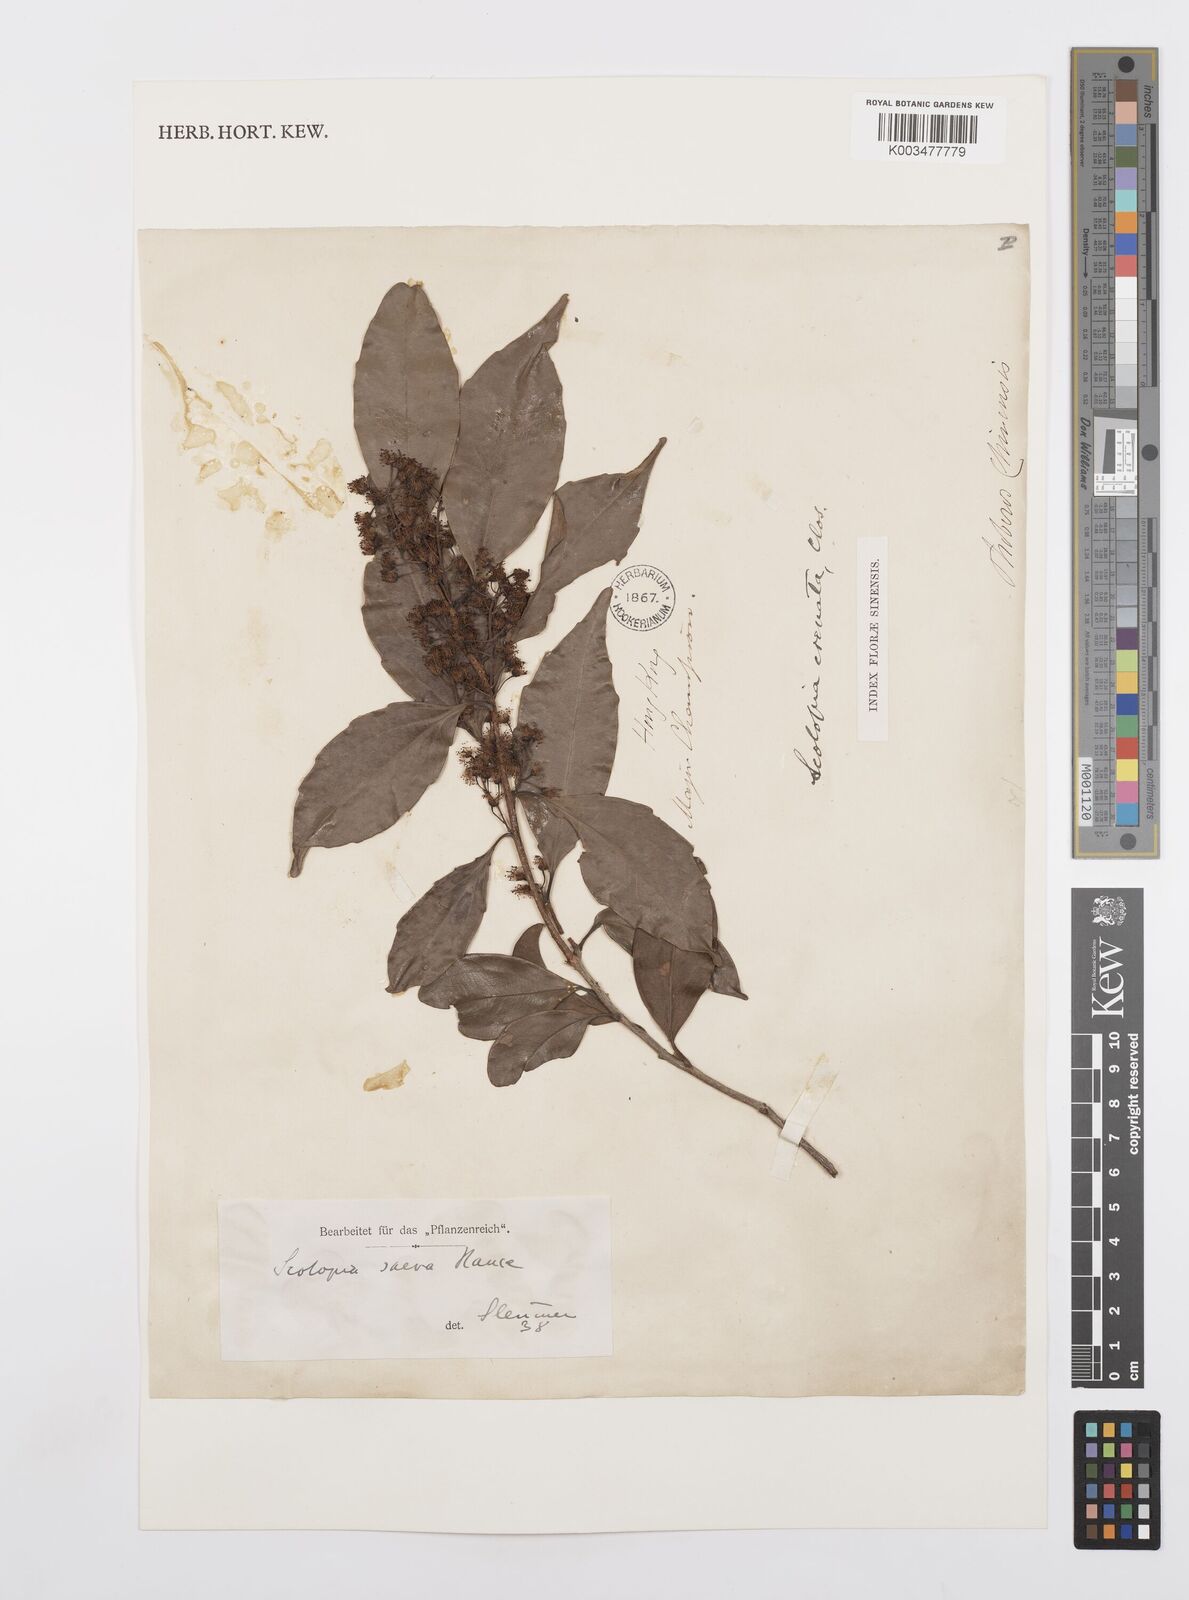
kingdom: Plantae
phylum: Tracheophyta
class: Magnoliopsida
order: Malpighiales
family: Salicaceae
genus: Scolopia
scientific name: Scolopia saeva
